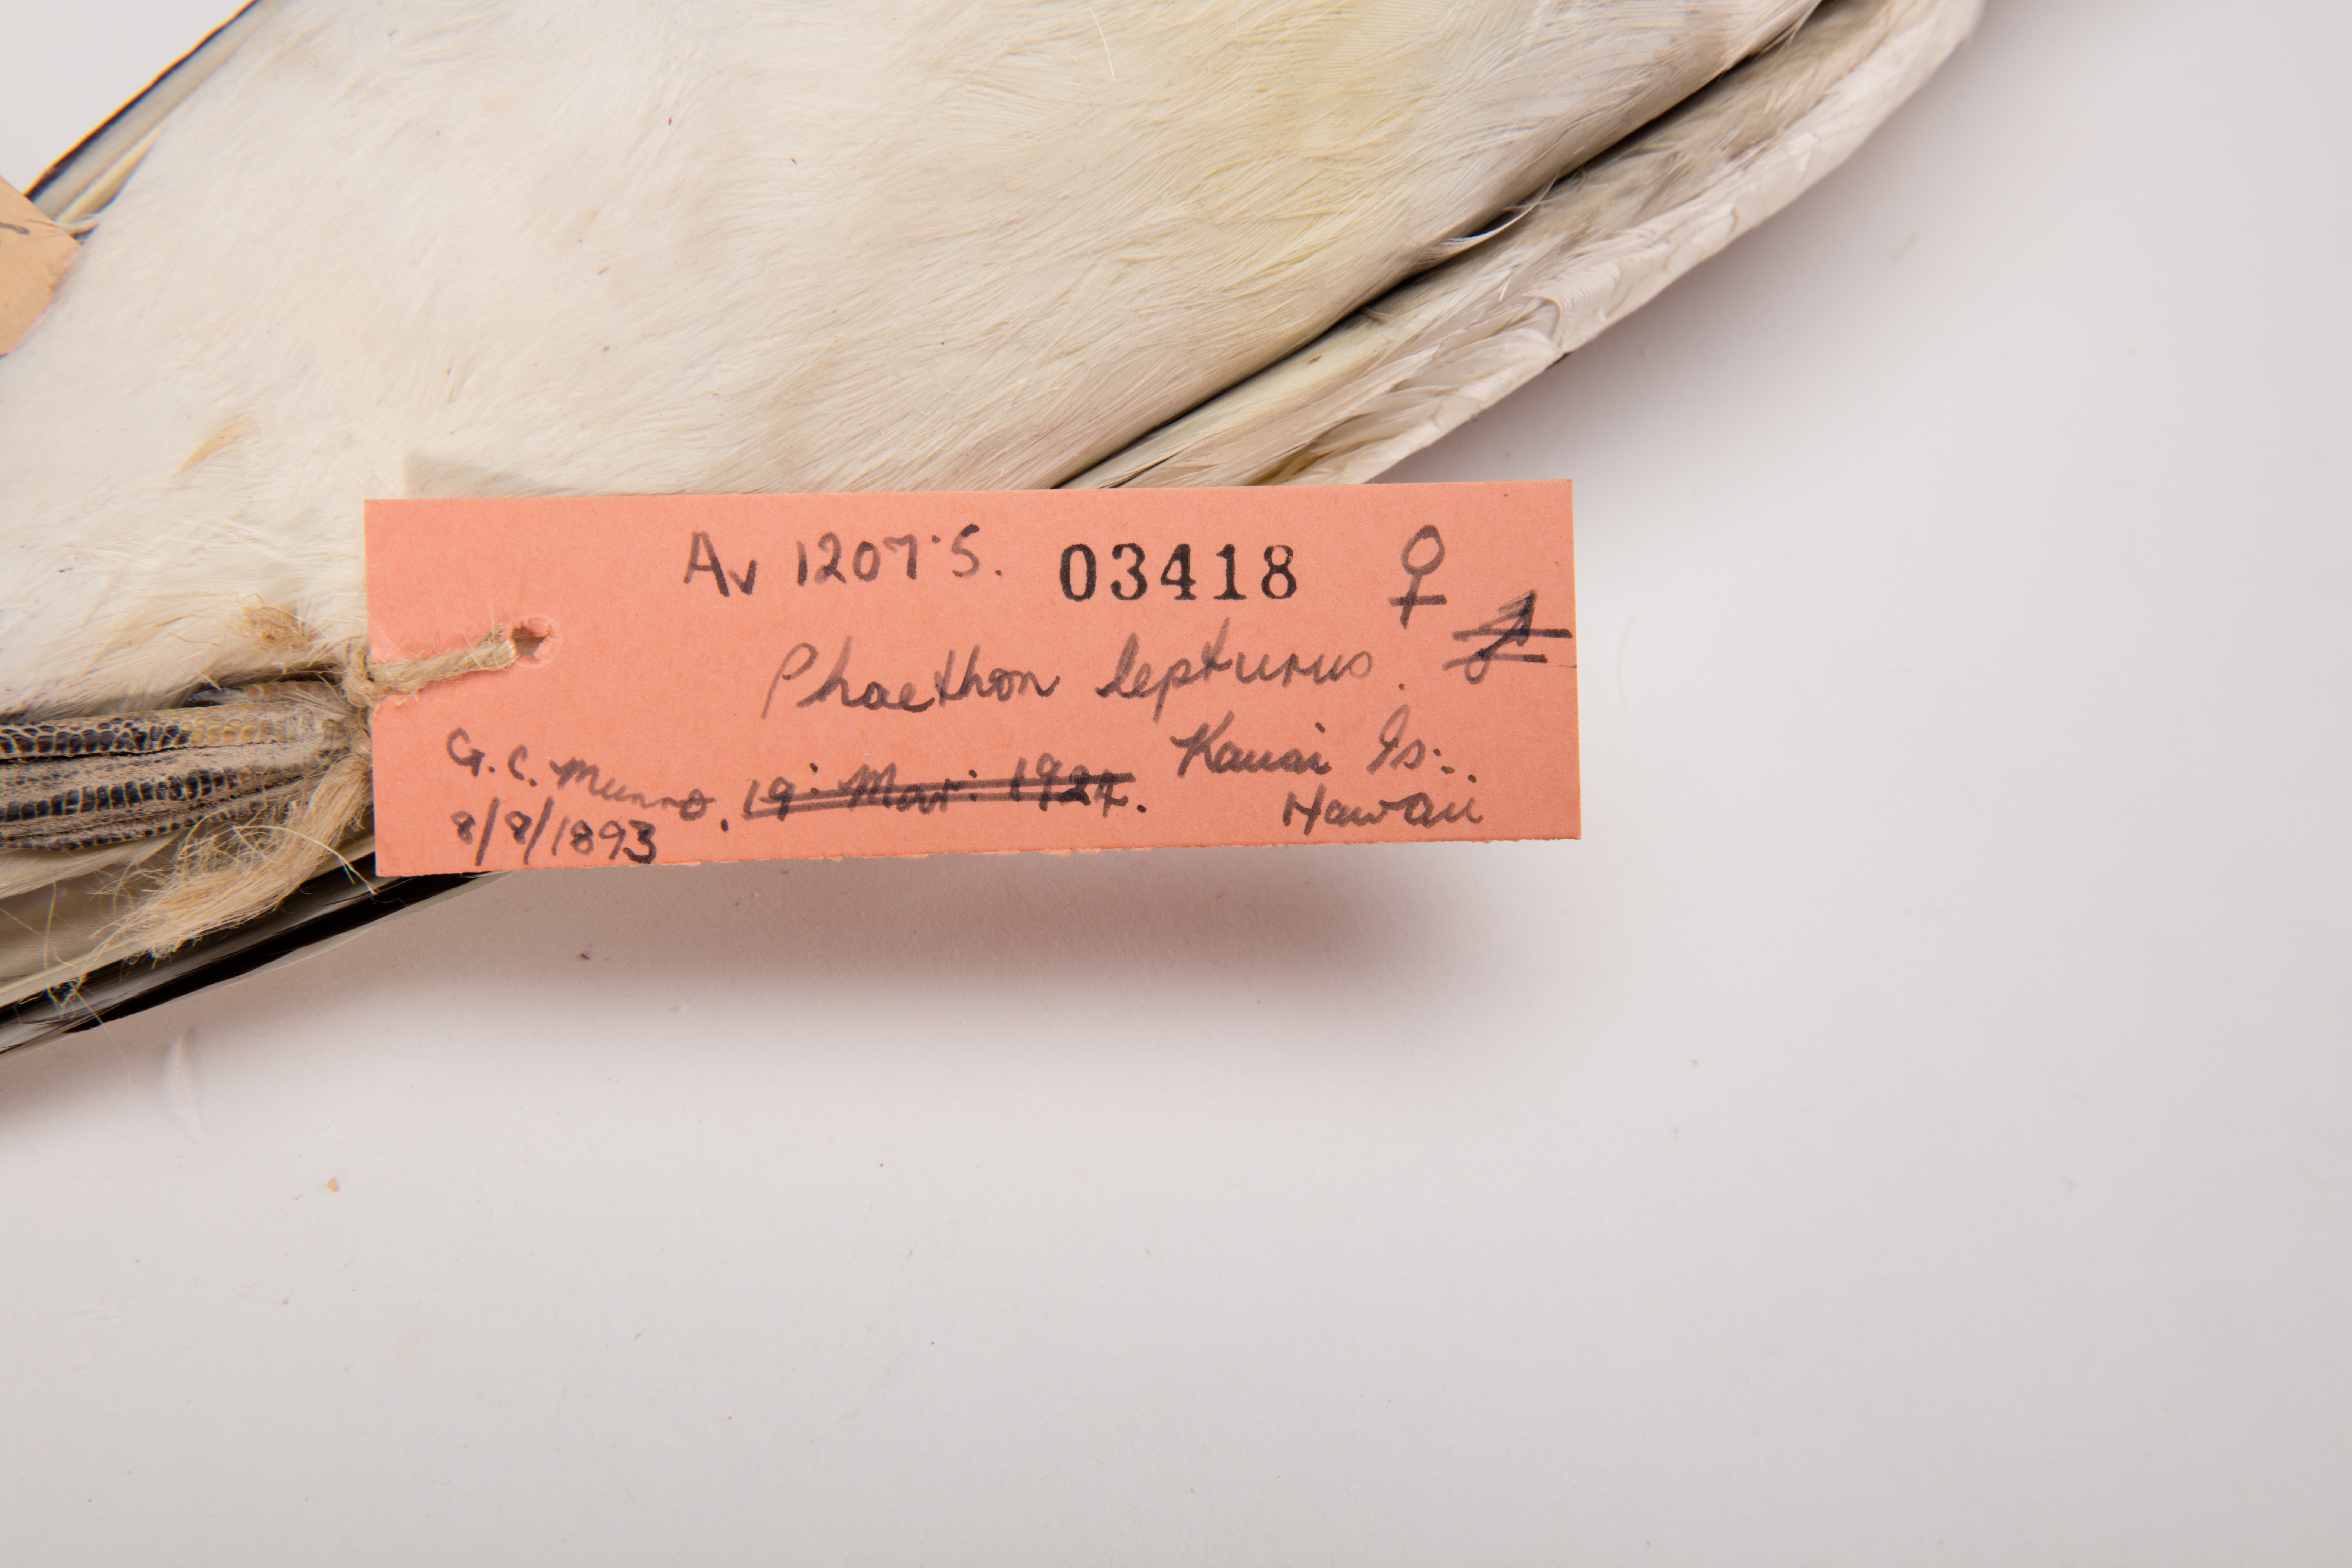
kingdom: Animalia
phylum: Chordata
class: Aves
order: Phaethontiformes
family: Phaethontidae
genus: Phaethon
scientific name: Phaethon lepturus
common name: White-tailed tropicbird
